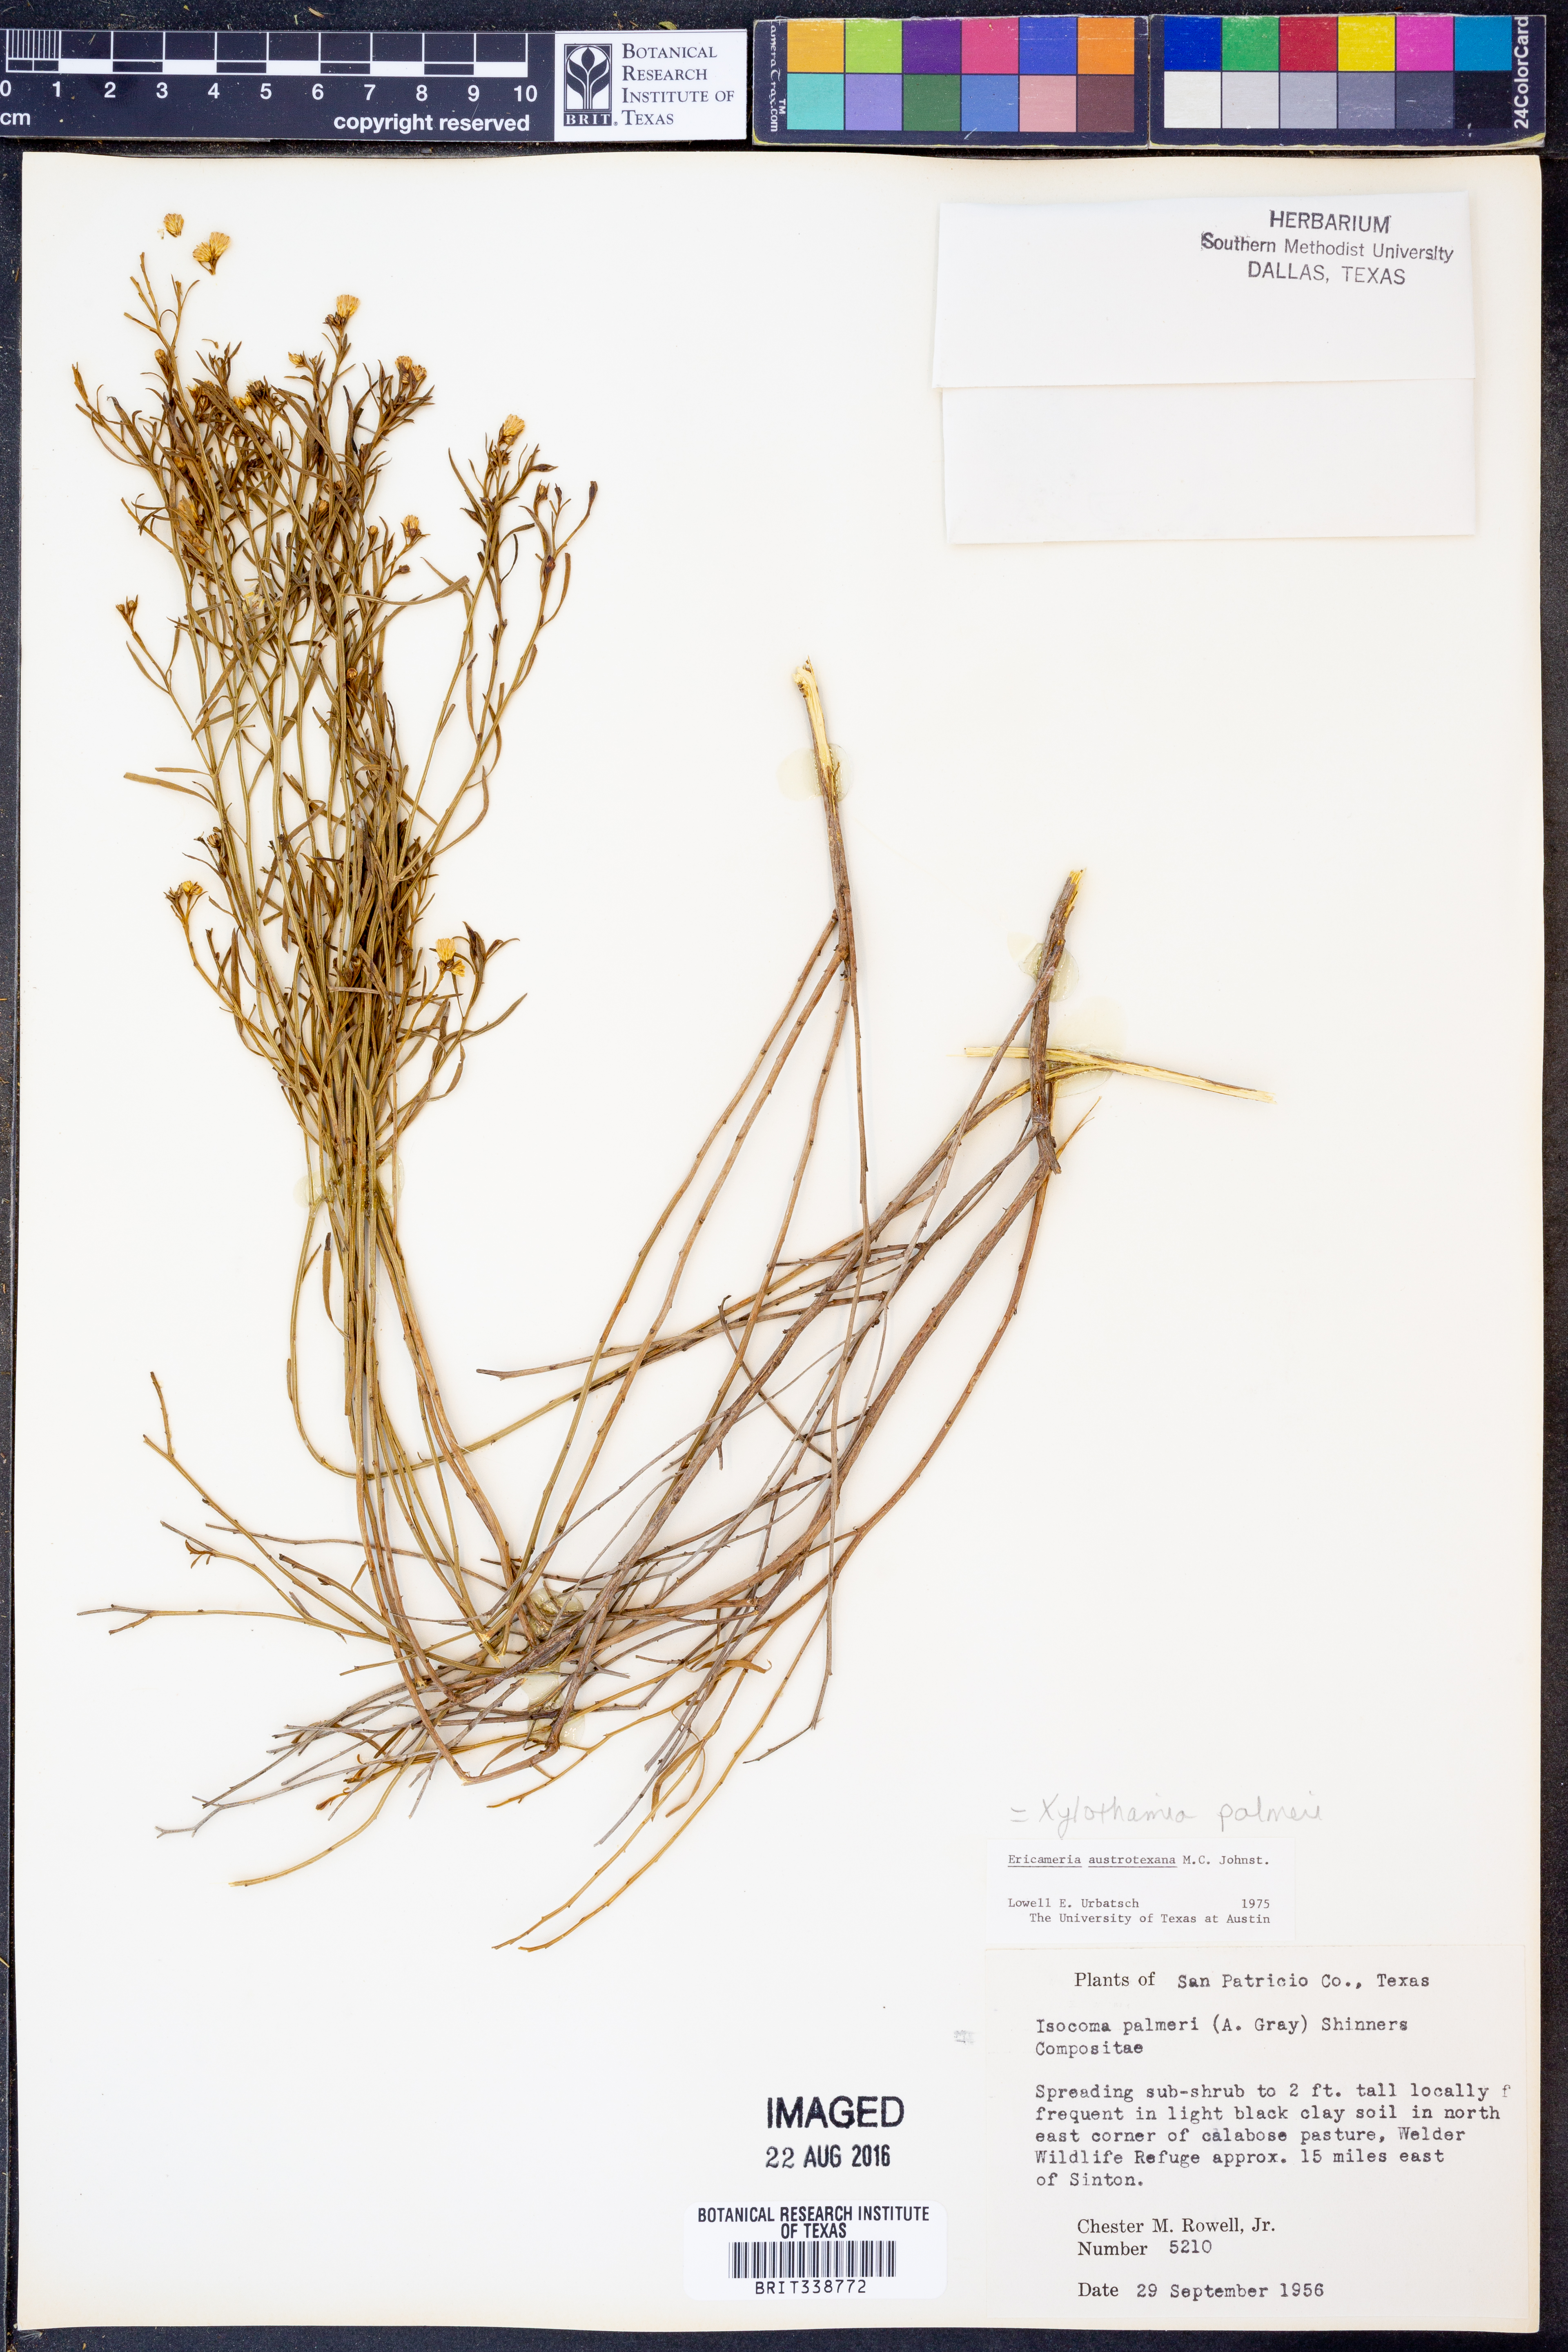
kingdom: Plantae
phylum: Tracheophyta
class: Magnoliopsida
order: Asterales
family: Asteraceae
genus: Medranoa
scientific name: Medranoa palmeri
